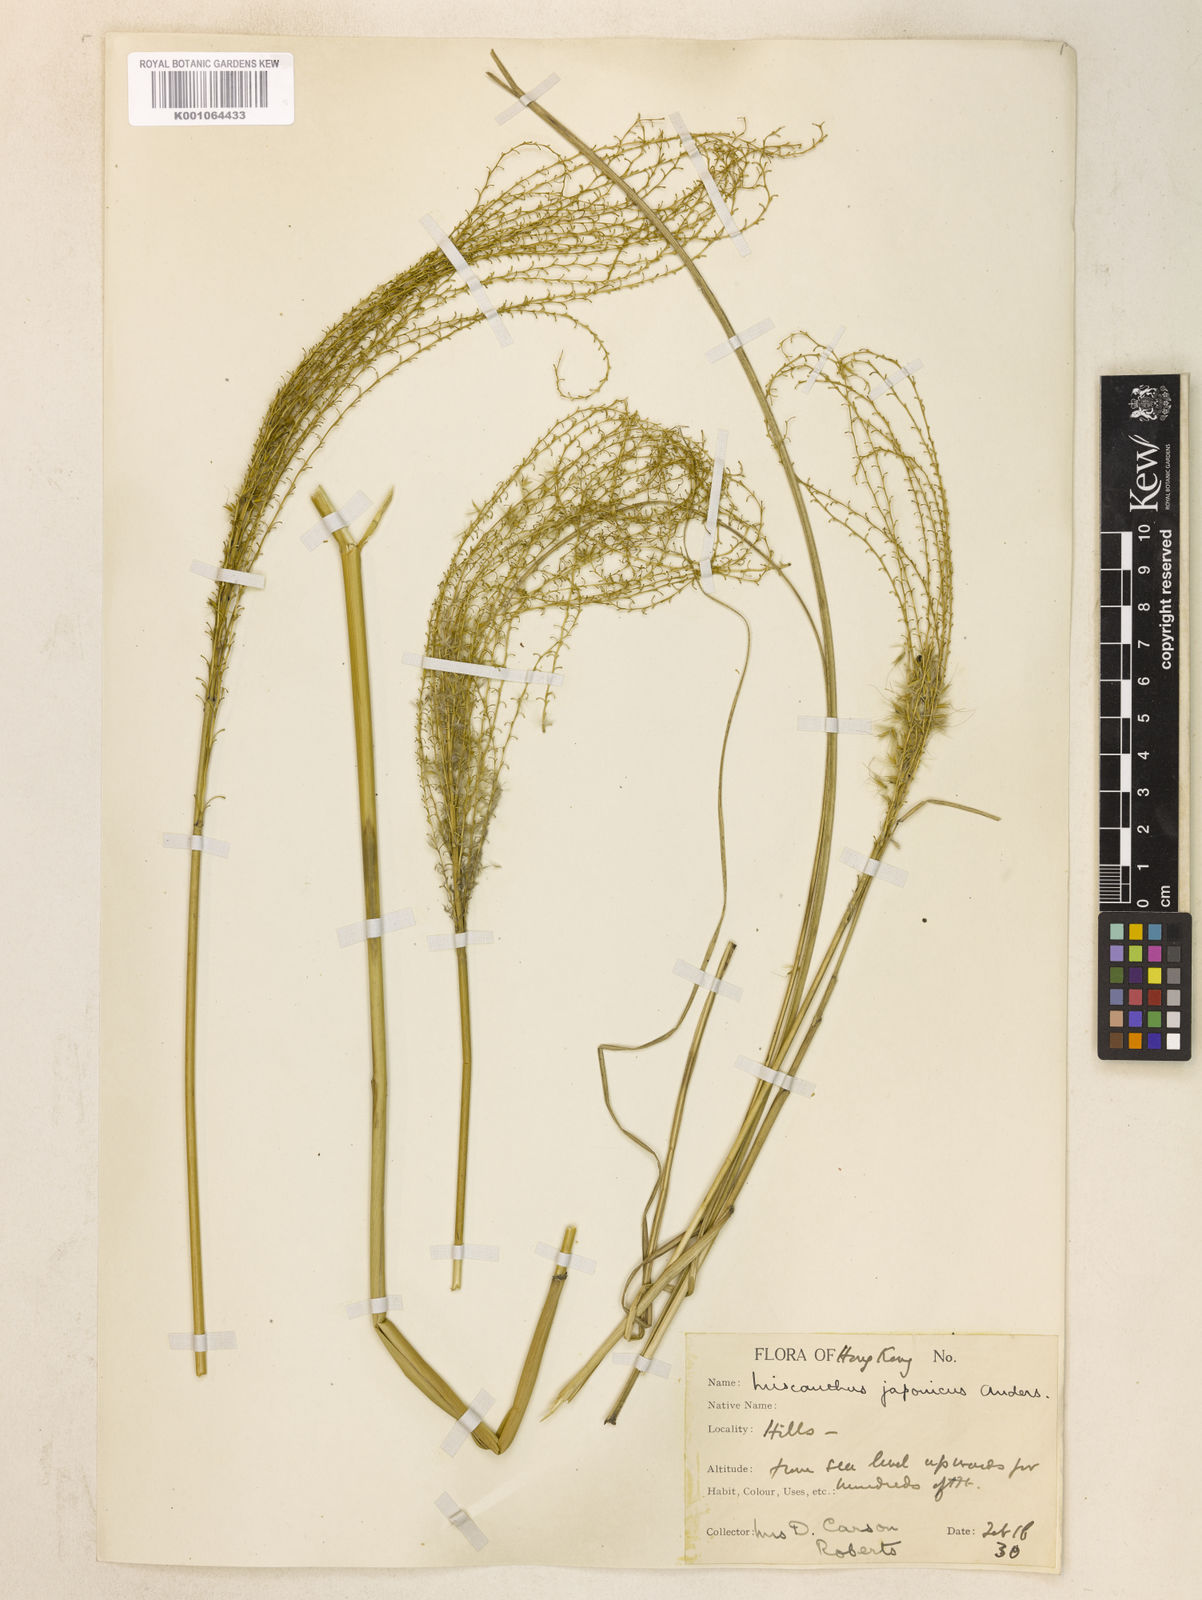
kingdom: Plantae
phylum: Tracheophyta
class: Liliopsida
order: Poales
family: Poaceae
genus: Miscanthus
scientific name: Miscanthus sinensis
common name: Chinese silvergrass
